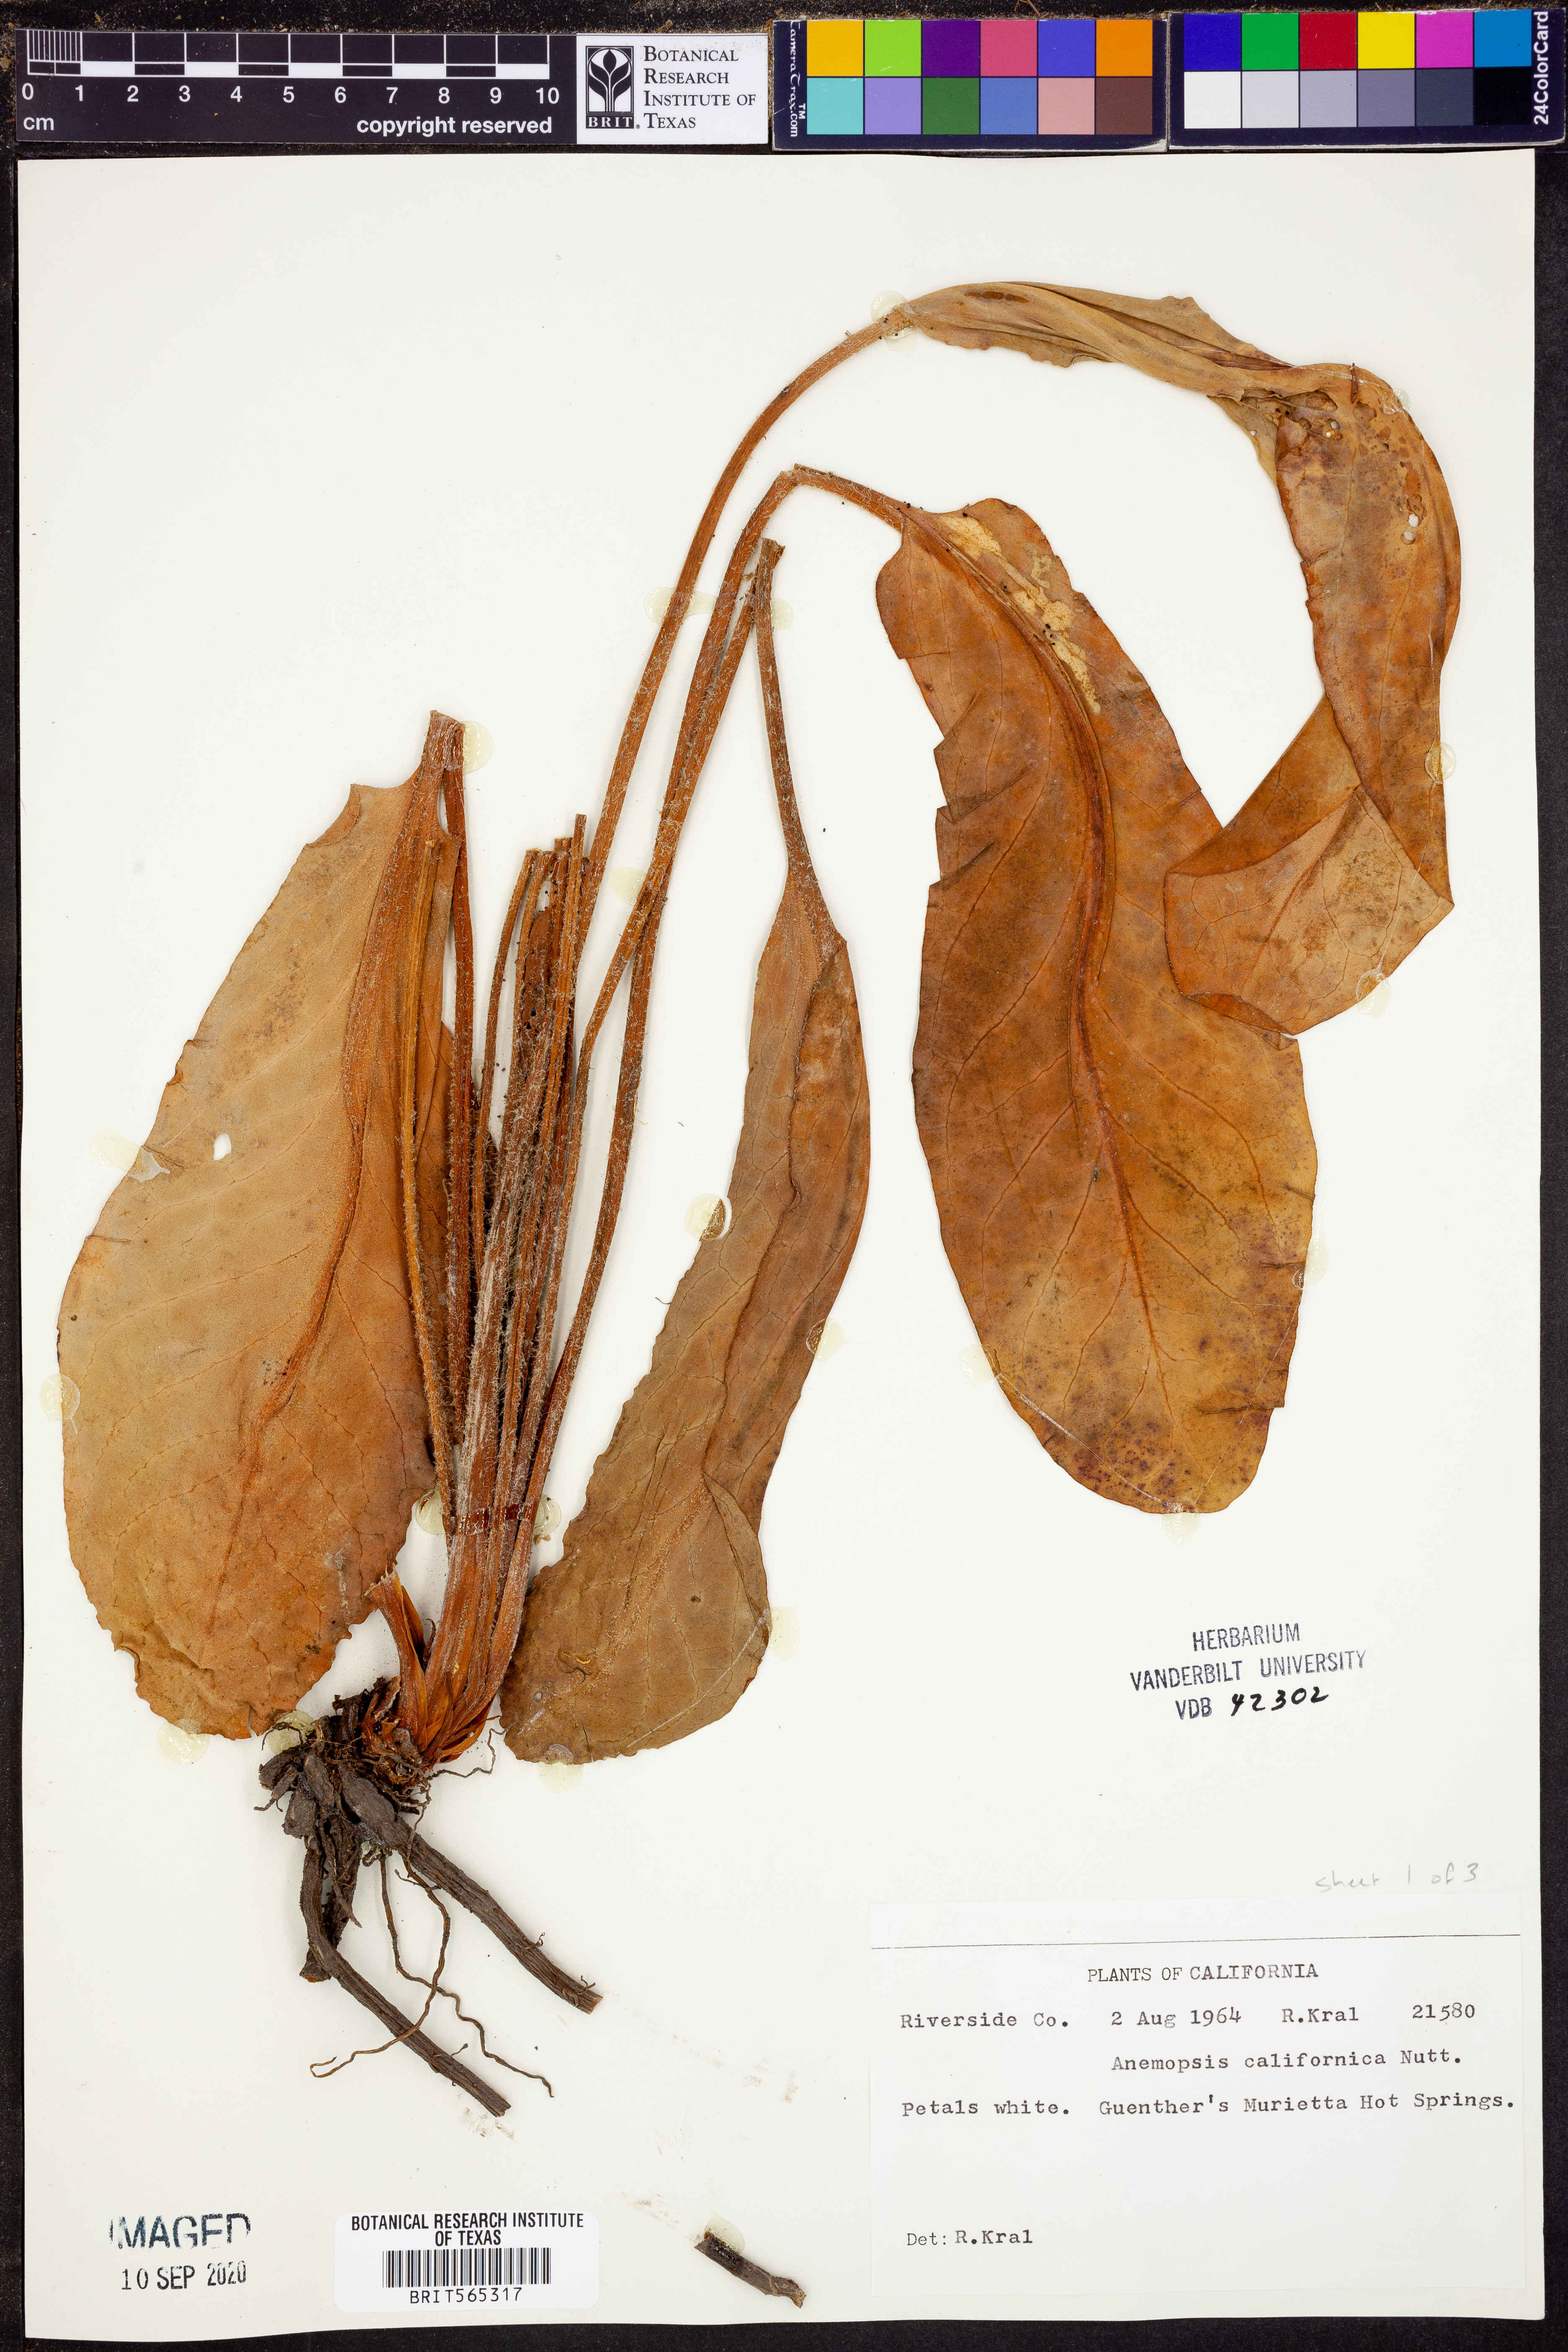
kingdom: Plantae
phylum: Tracheophyta
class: Magnoliopsida
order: Piperales
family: Saururaceae
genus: Anemopsis
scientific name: Anemopsis californica
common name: Apache-beads
